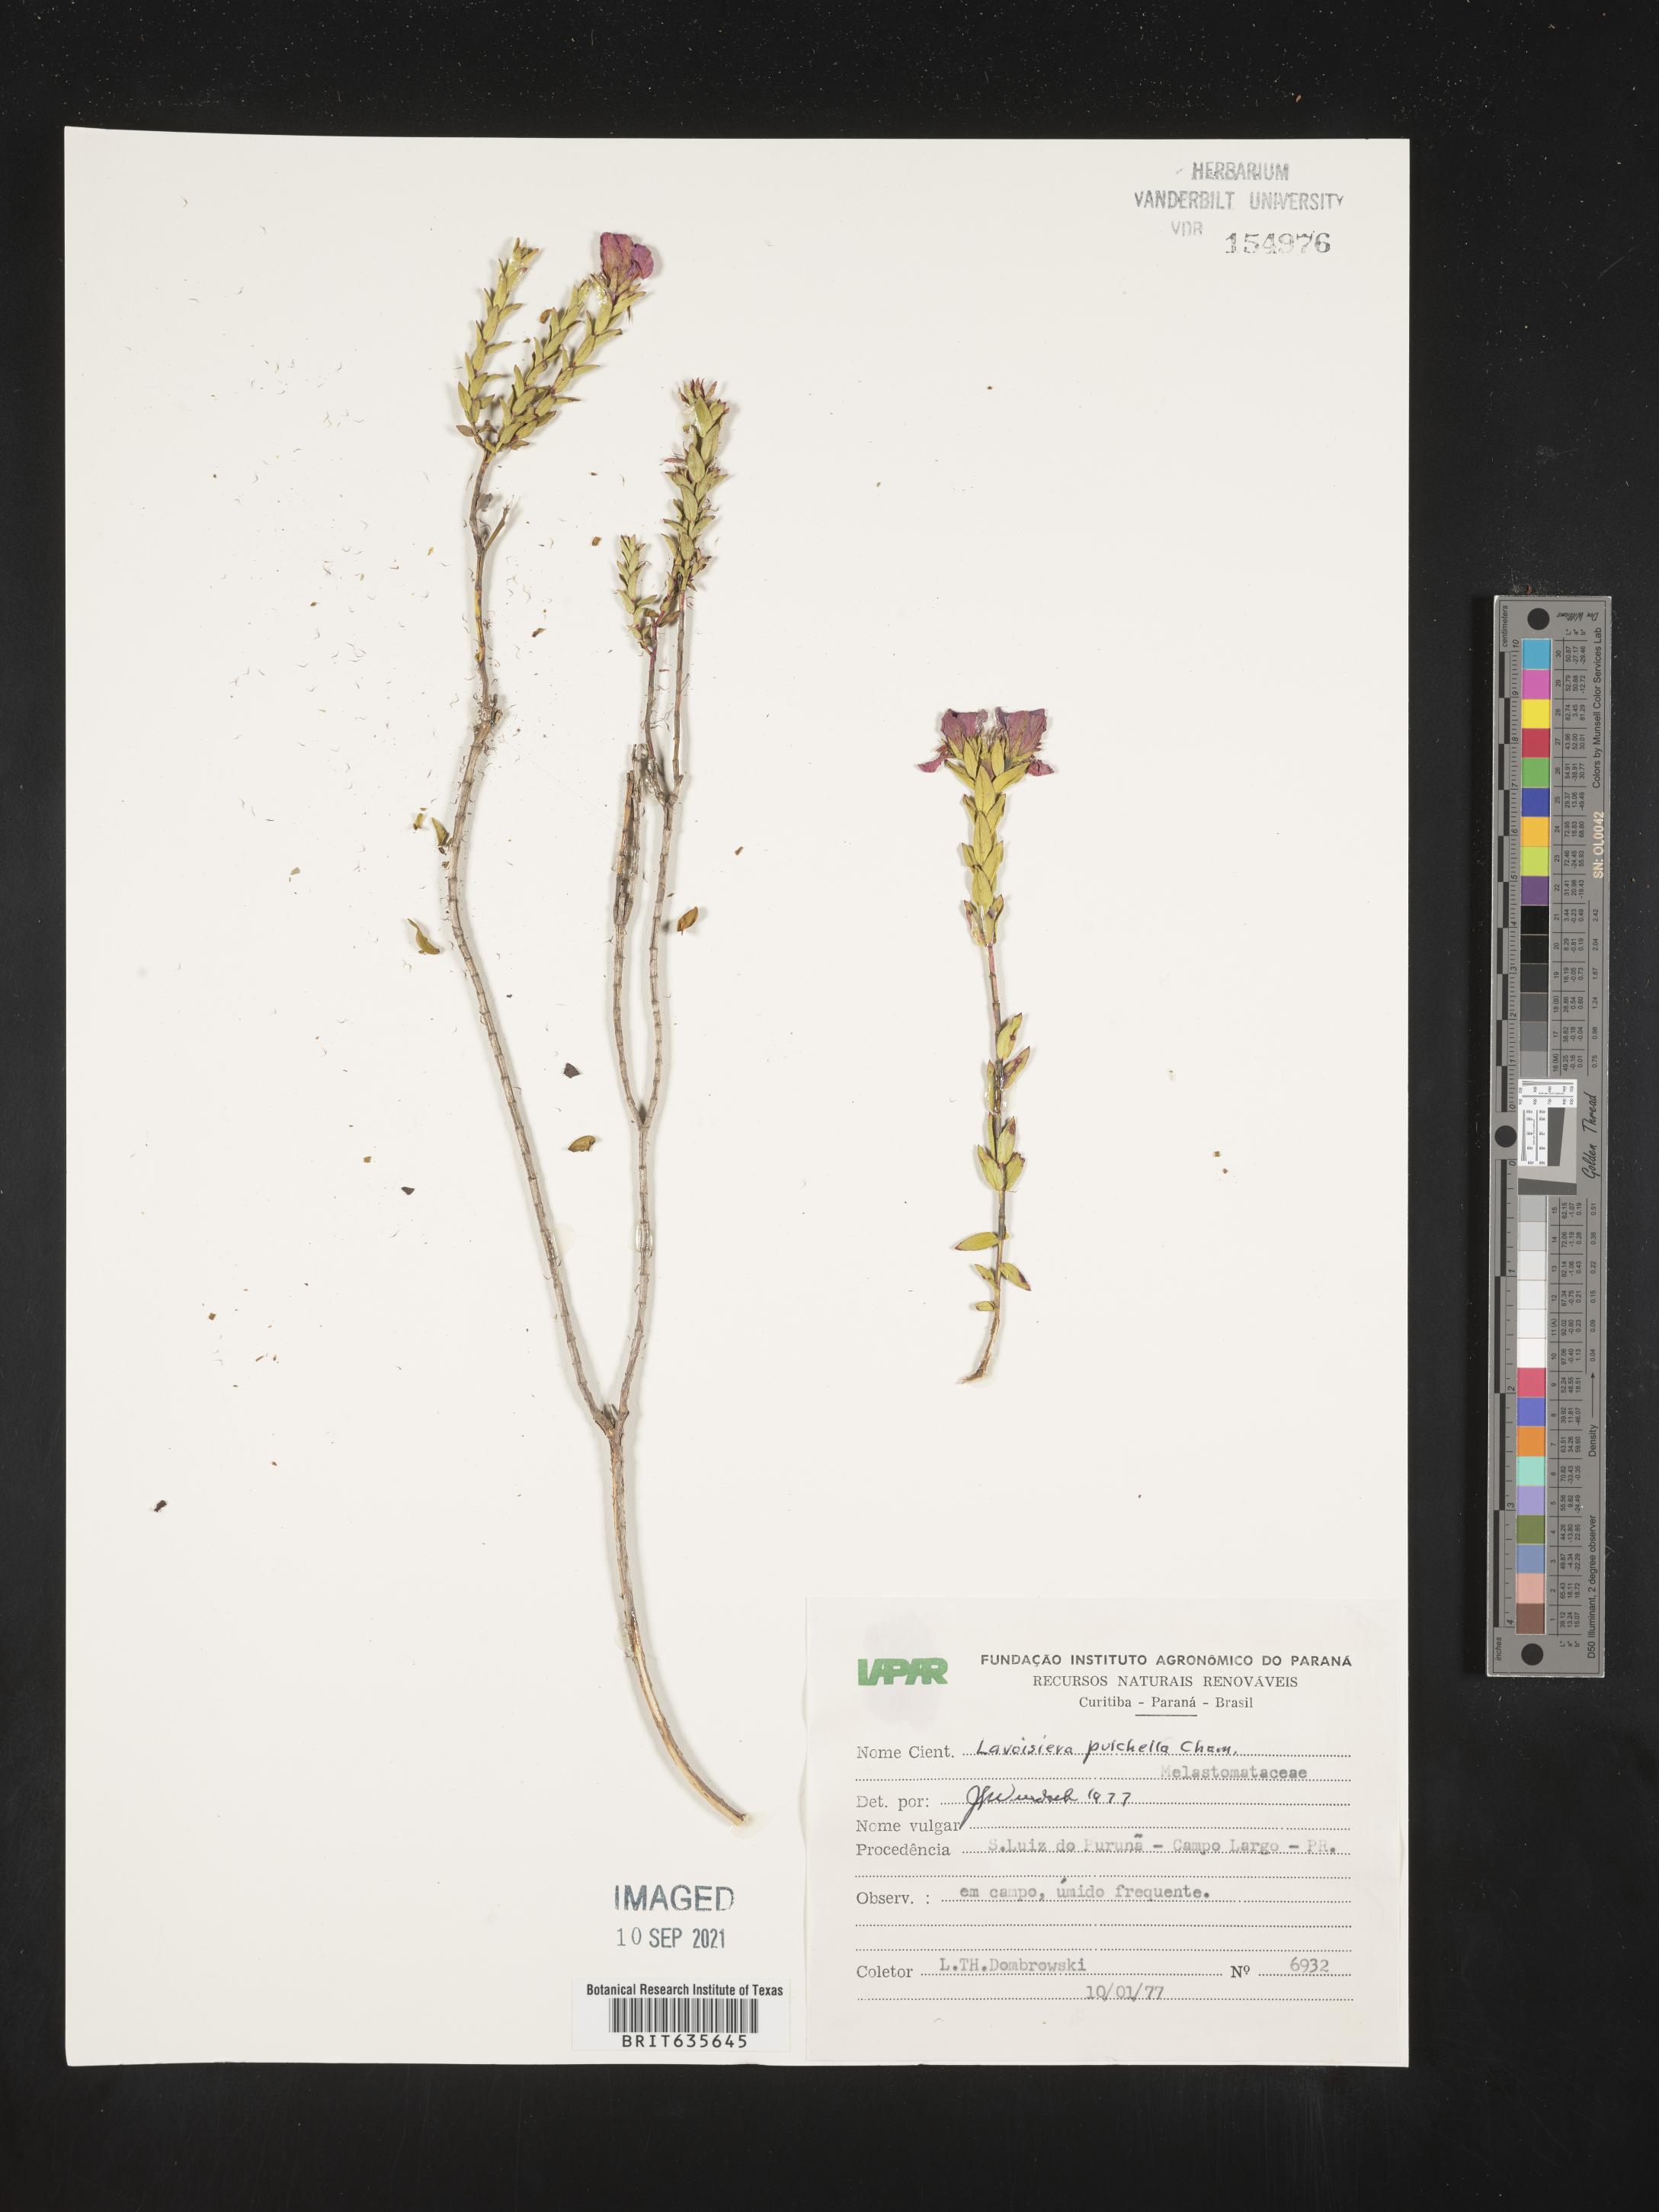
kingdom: Plantae
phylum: Tracheophyta
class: Magnoliopsida
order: Myrtales
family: Melastomataceae
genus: Microlicia
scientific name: Microlicia
